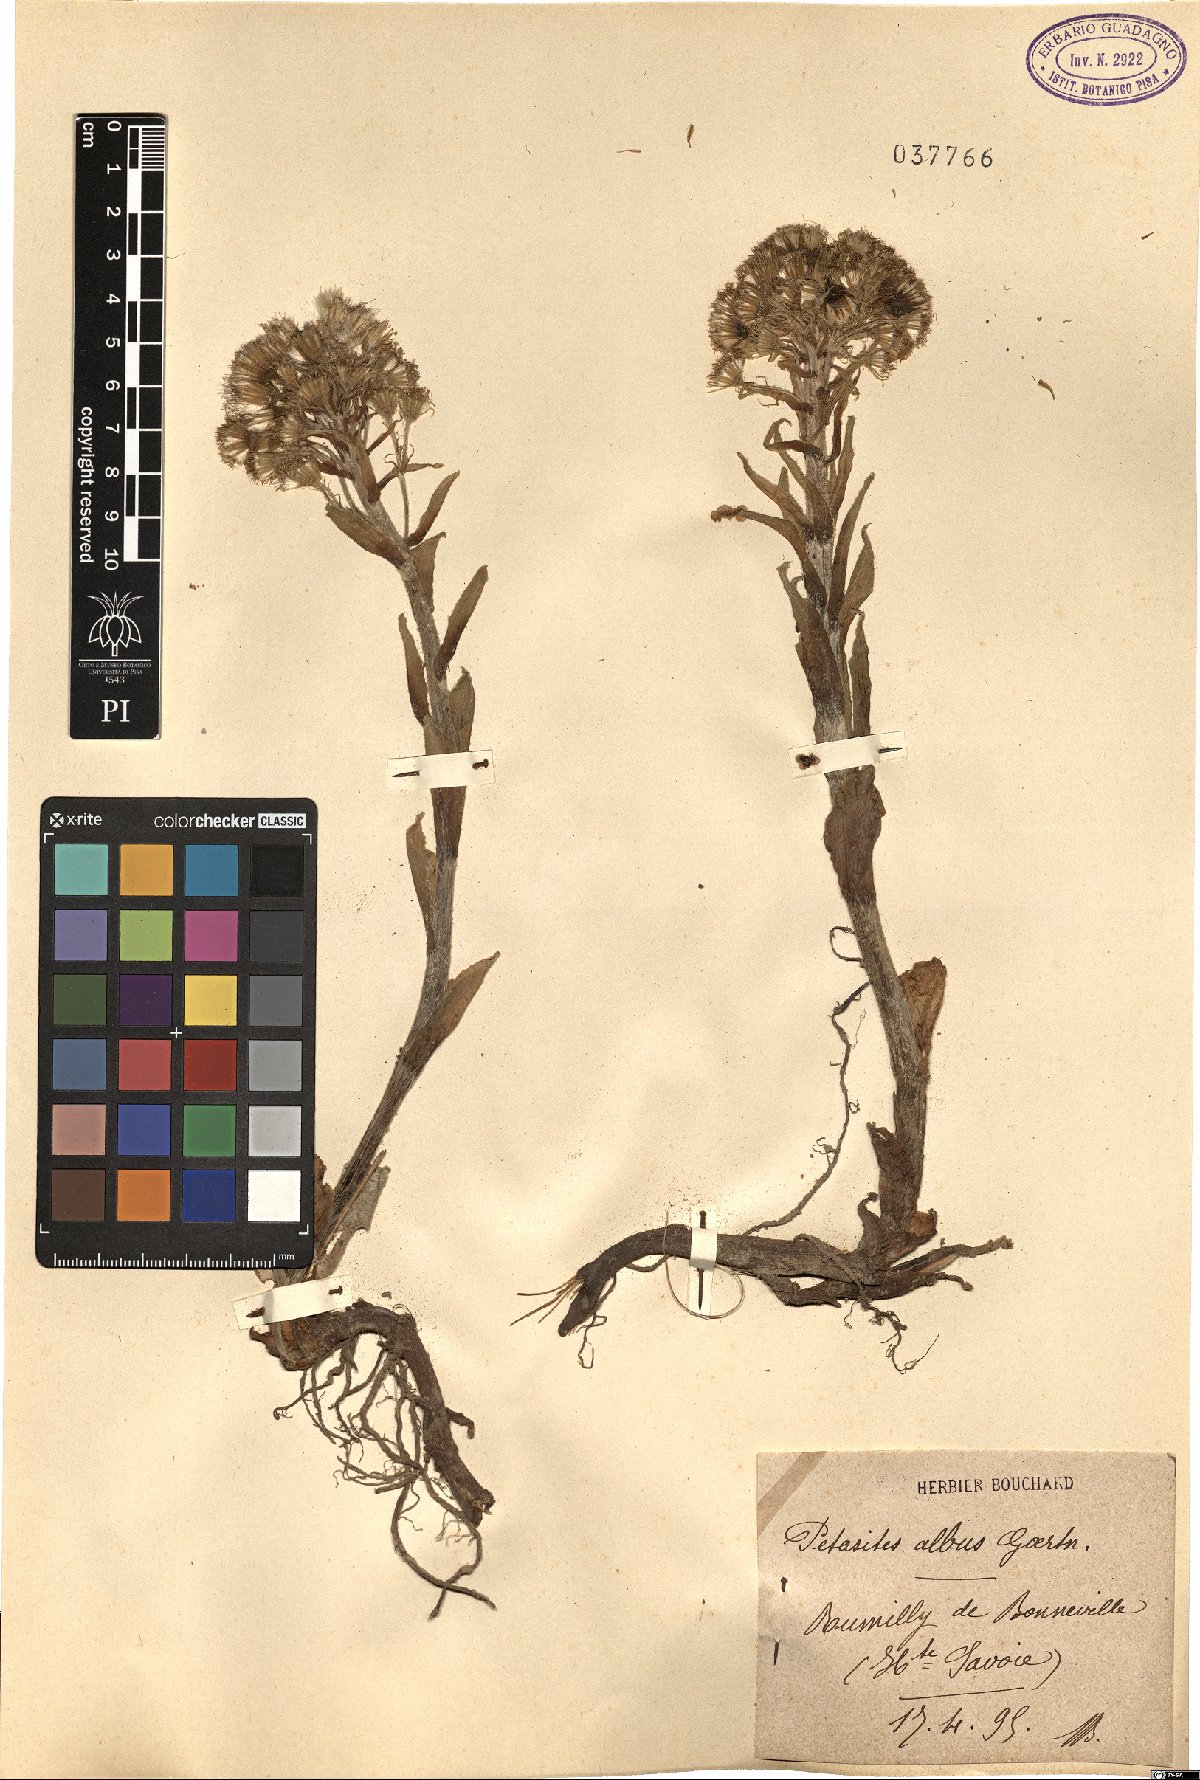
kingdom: Plantae
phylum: Tracheophyta
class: Magnoliopsida
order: Asterales
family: Asteraceae
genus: Petasites
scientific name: Petasites albus
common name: White butterbur
